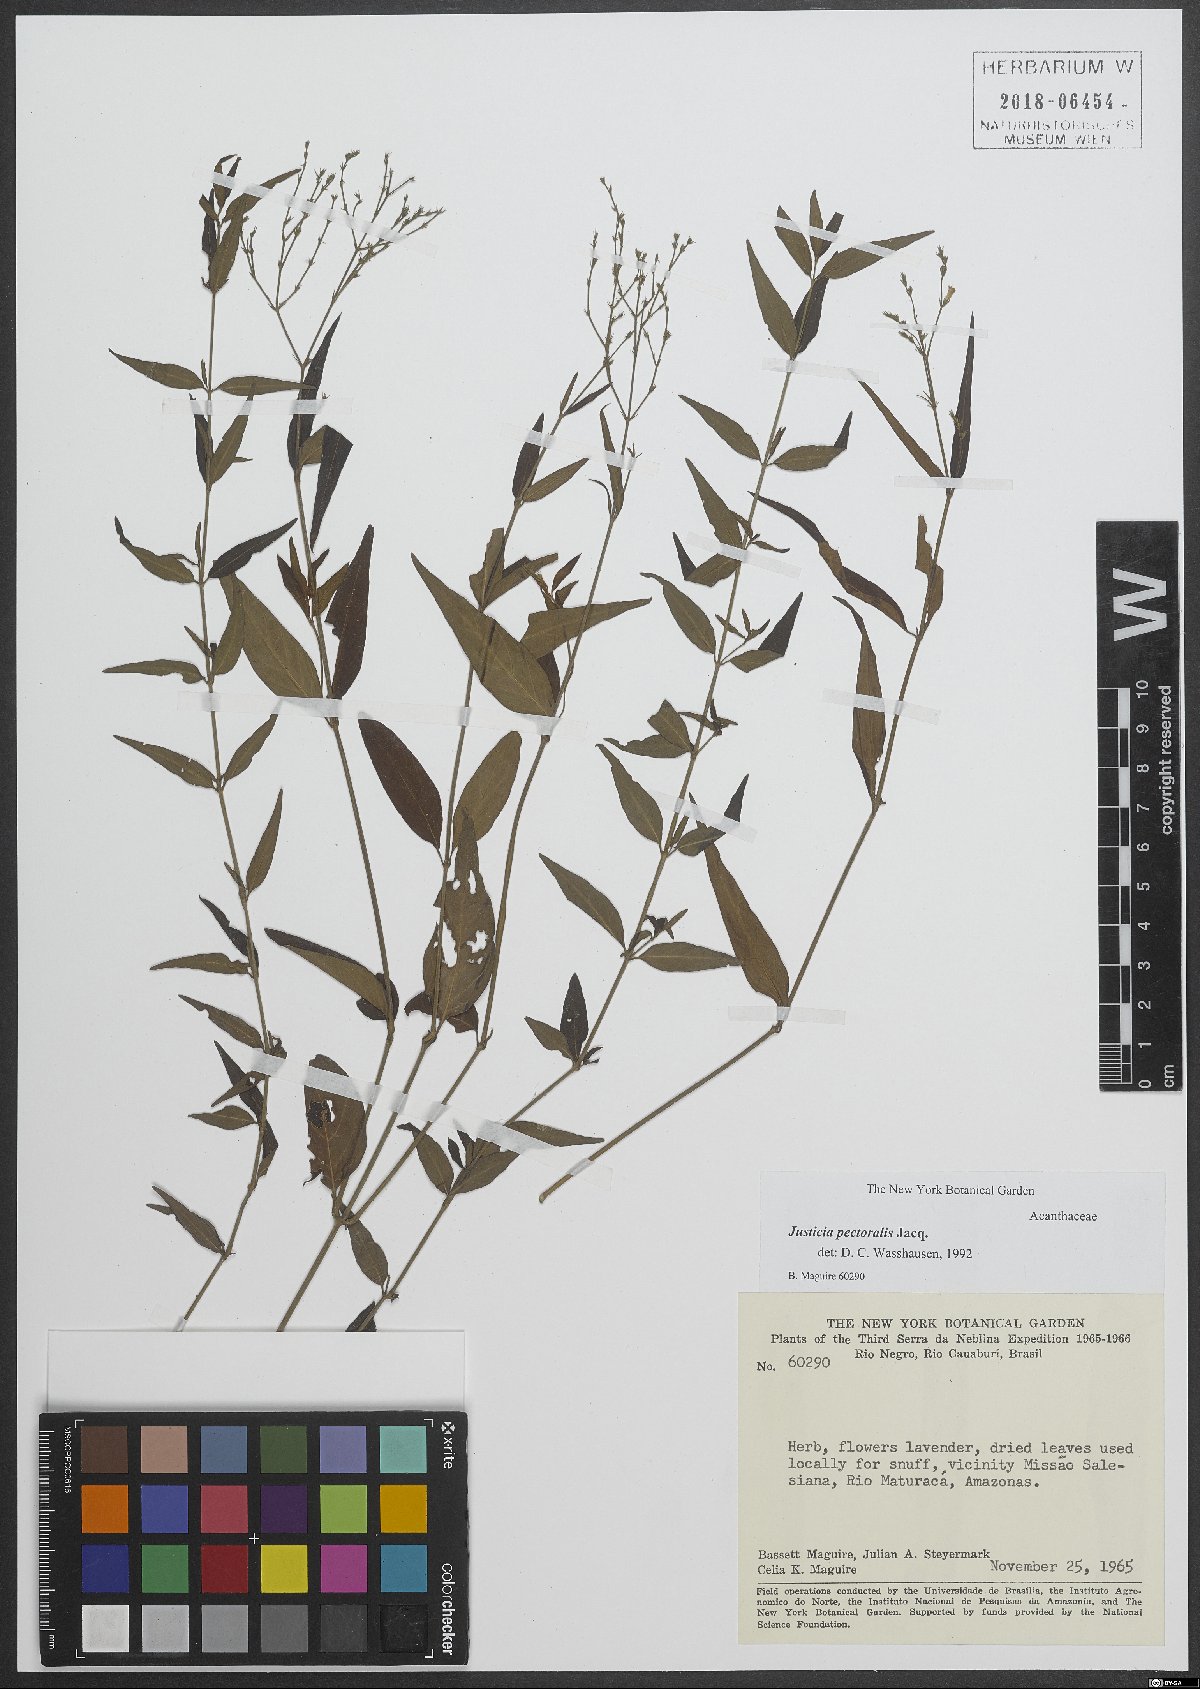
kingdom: Plantae
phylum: Tracheophyta
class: Magnoliopsida
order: Lamiales
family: Acanthaceae
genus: Dianthera
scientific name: Dianthera pectoralis
